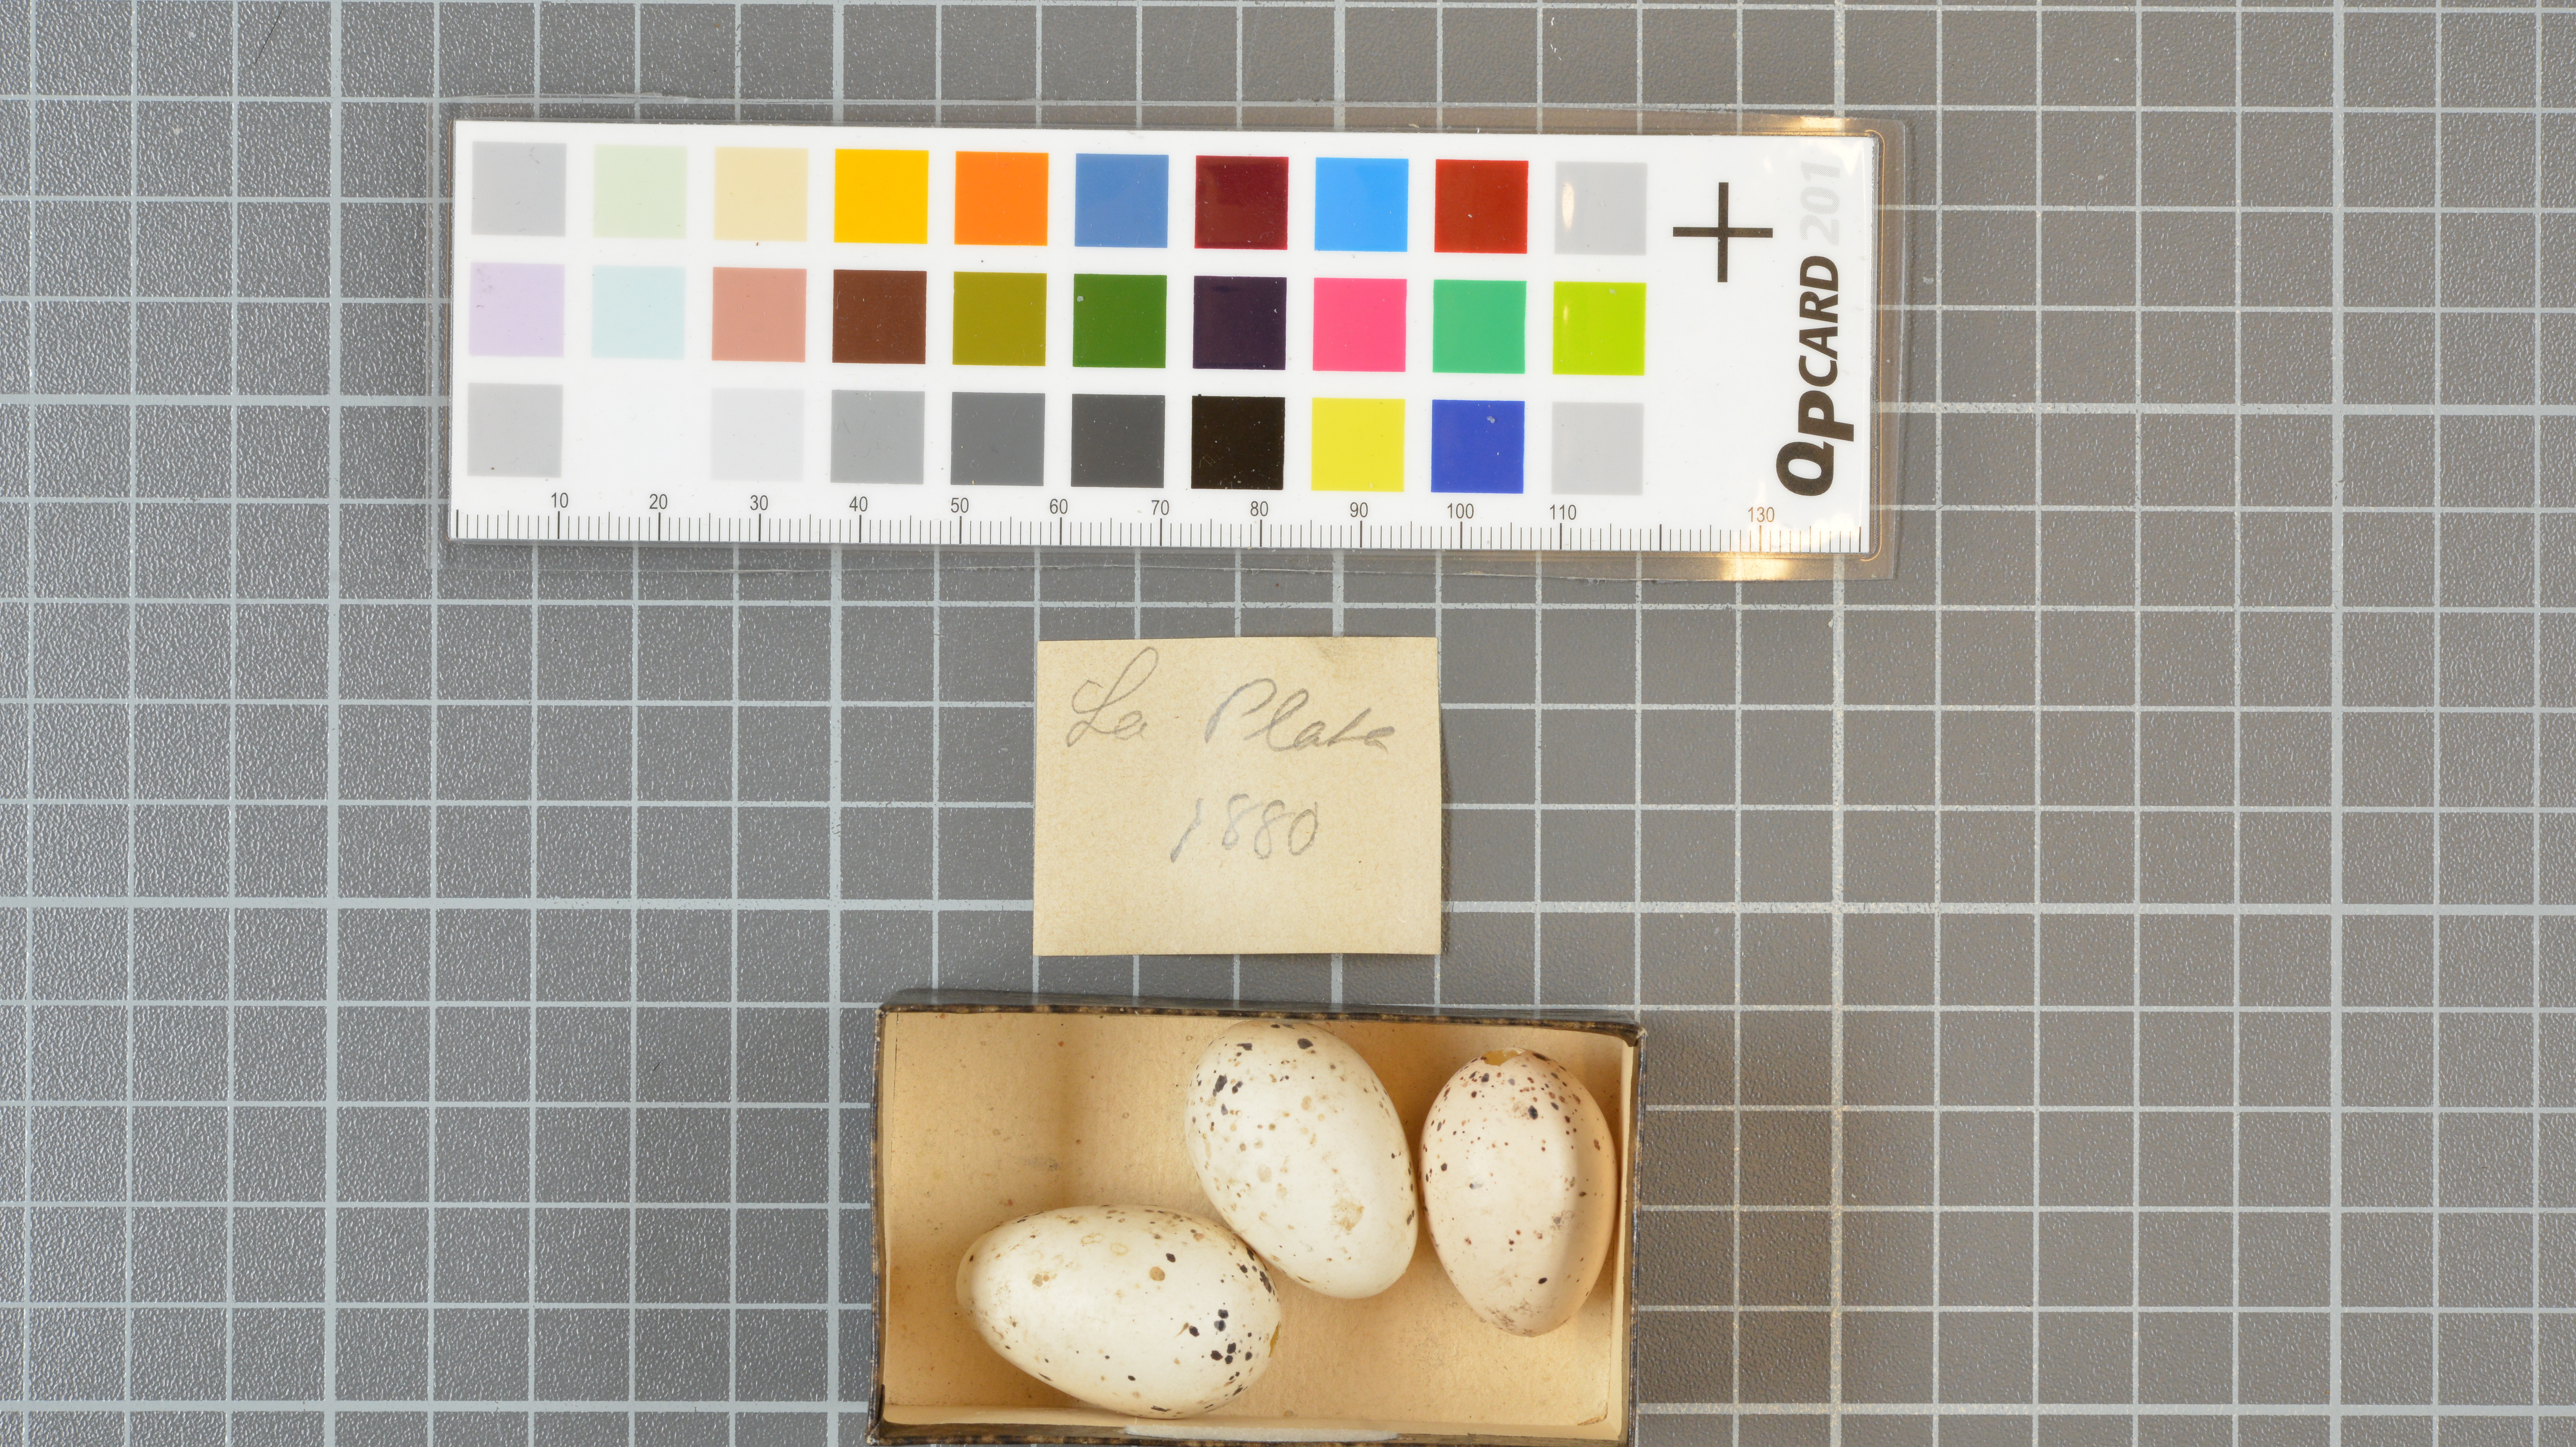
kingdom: Animalia
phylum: Chordata
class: Aves
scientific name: Aves
